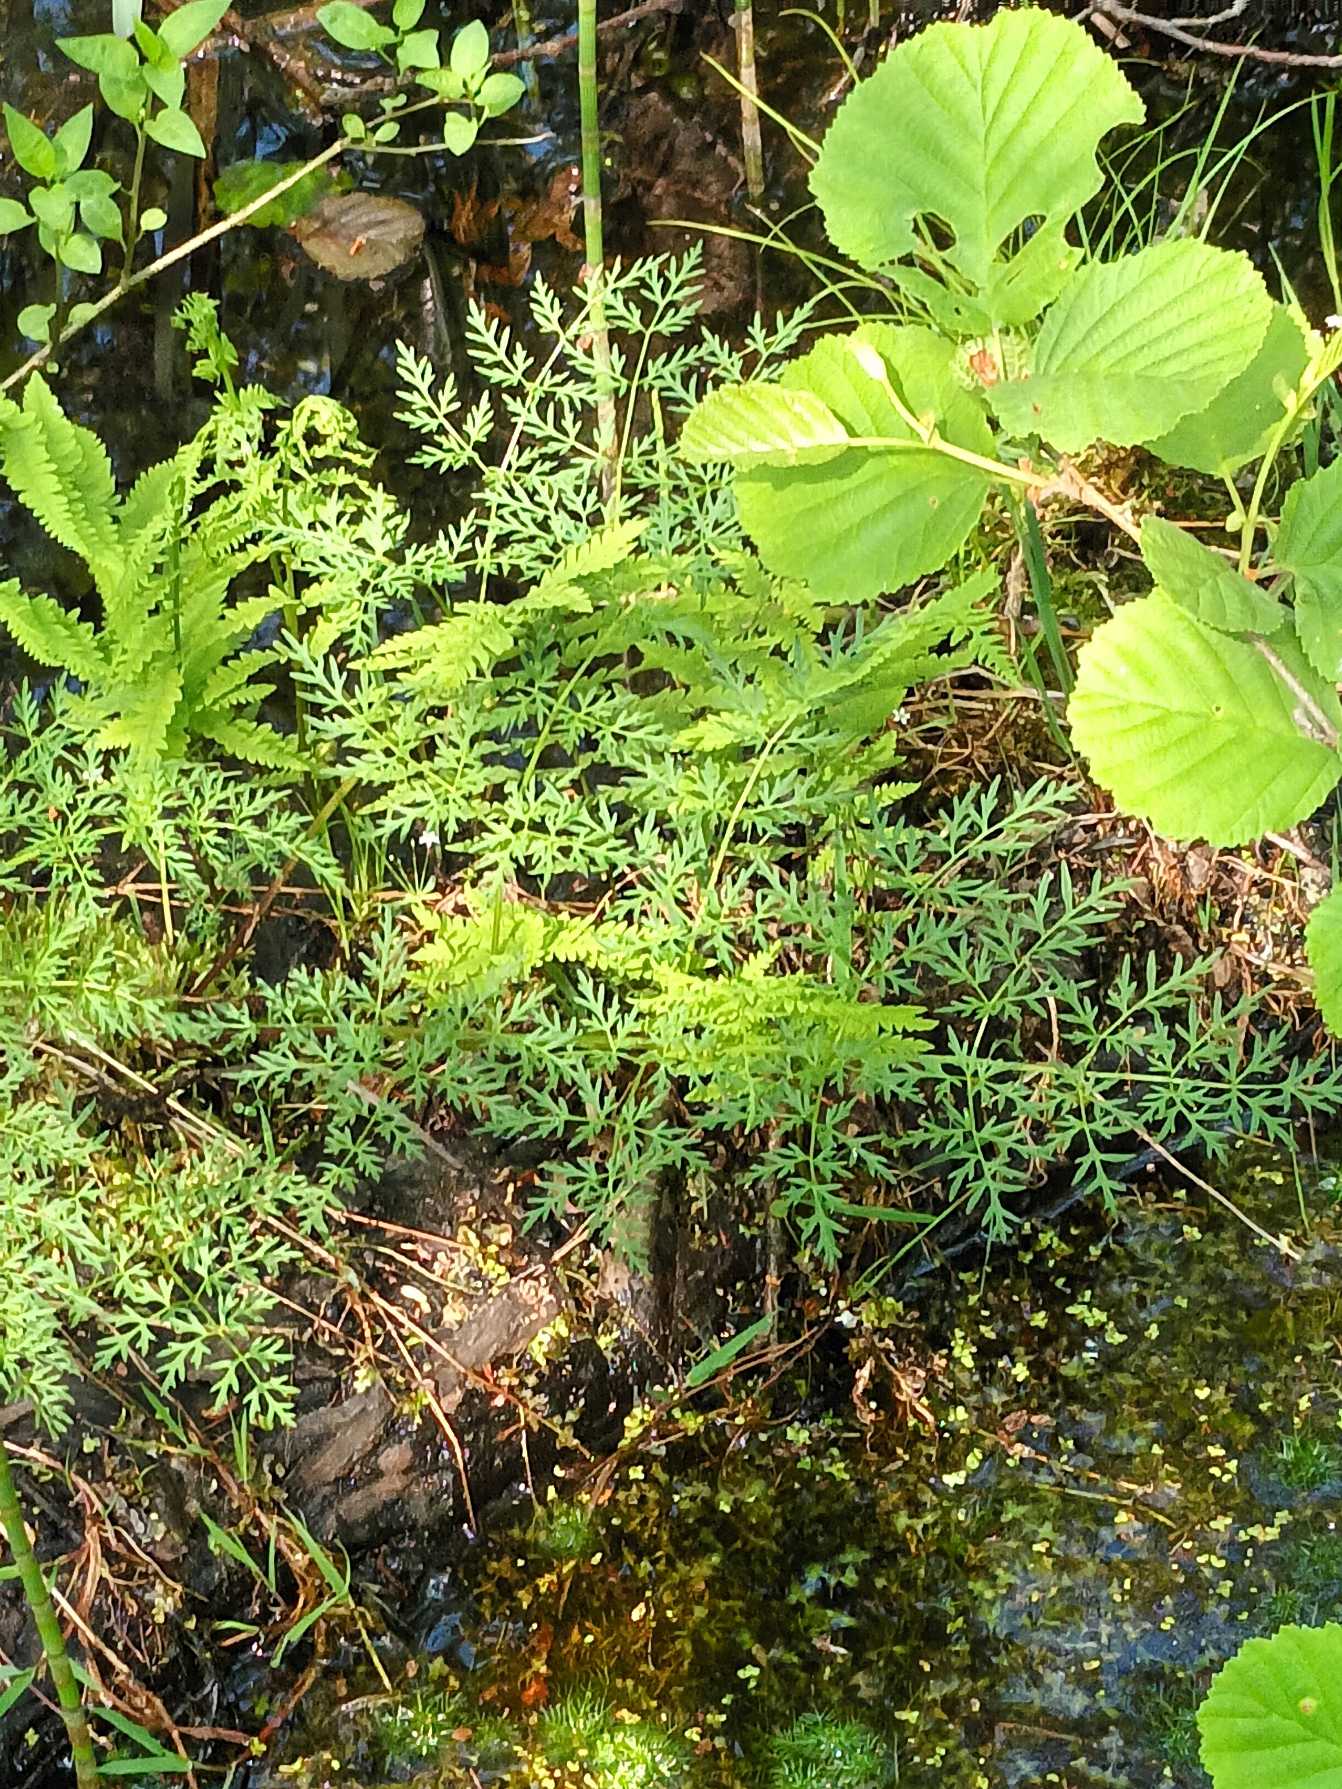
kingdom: Plantae
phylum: Tracheophyta
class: Magnoliopsida
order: Apiales
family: Apiaceae
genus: Thysselinum
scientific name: Thysselinum palustre
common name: Kær-svovlrod
